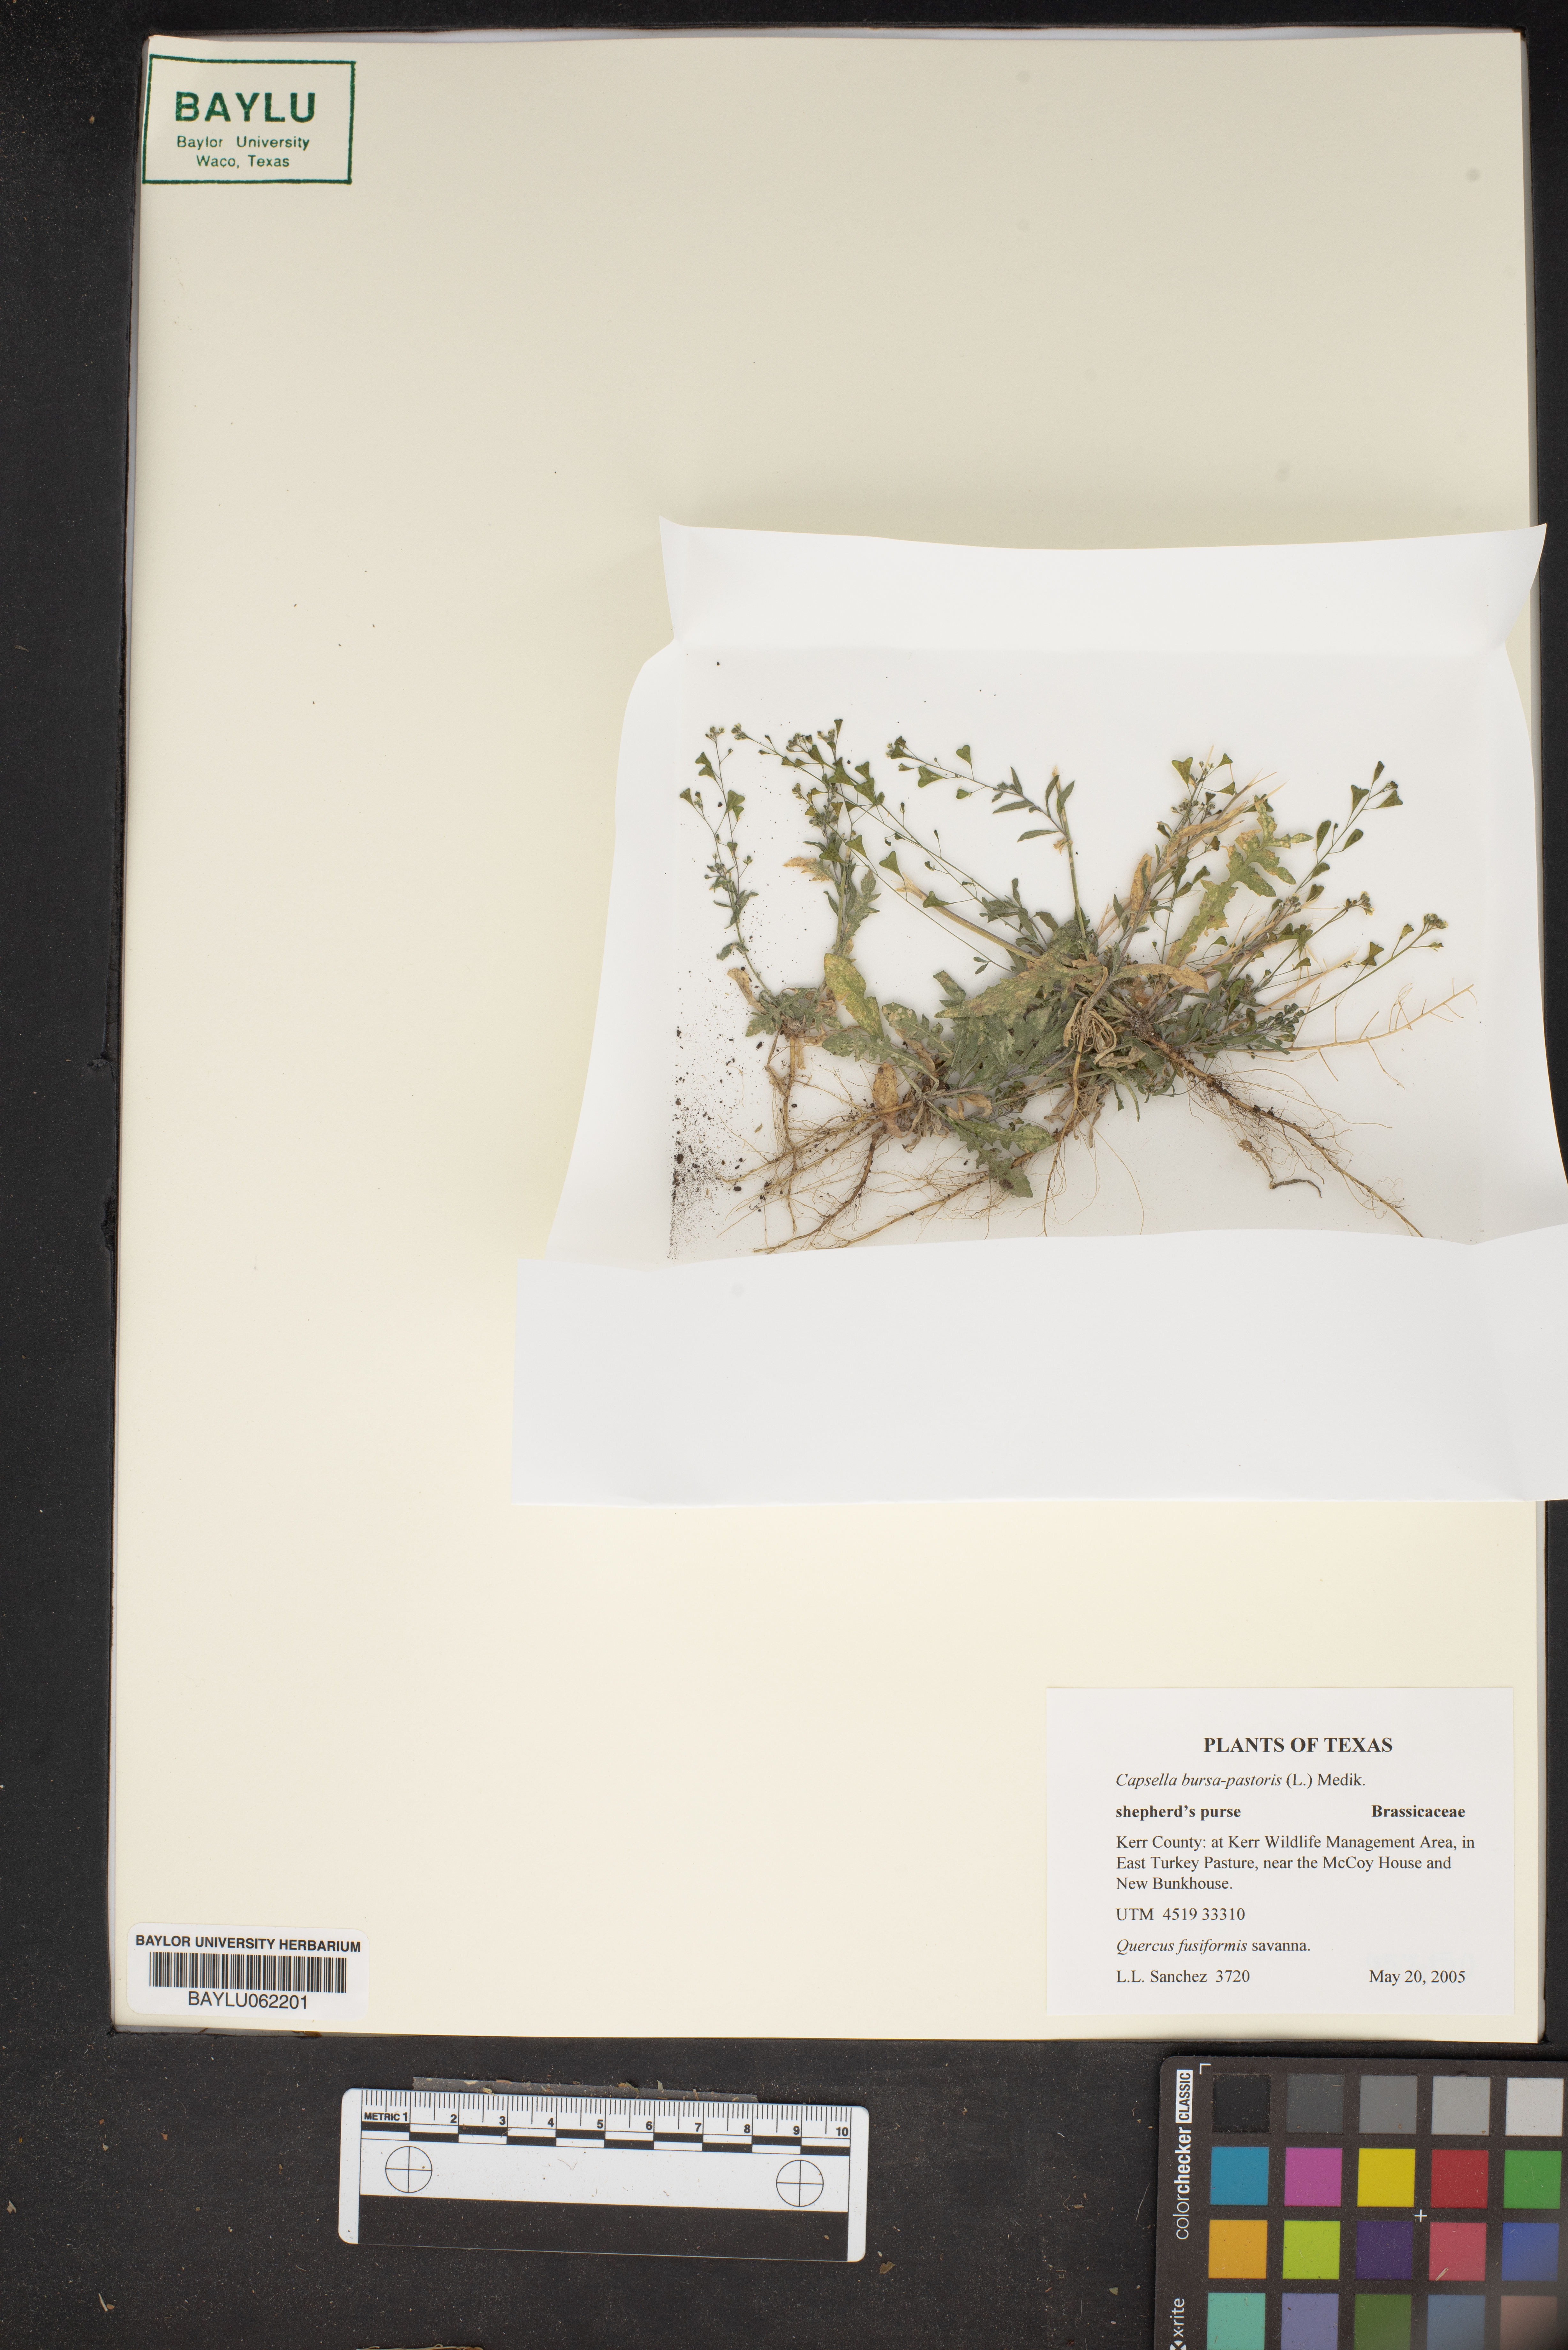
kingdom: Plantae
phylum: Tracheophyta
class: Magnoliopsida
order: Brassicales
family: Brassicaceae
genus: Capsella
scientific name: Capsella bursa-pastoris
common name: Shepherd's purse
